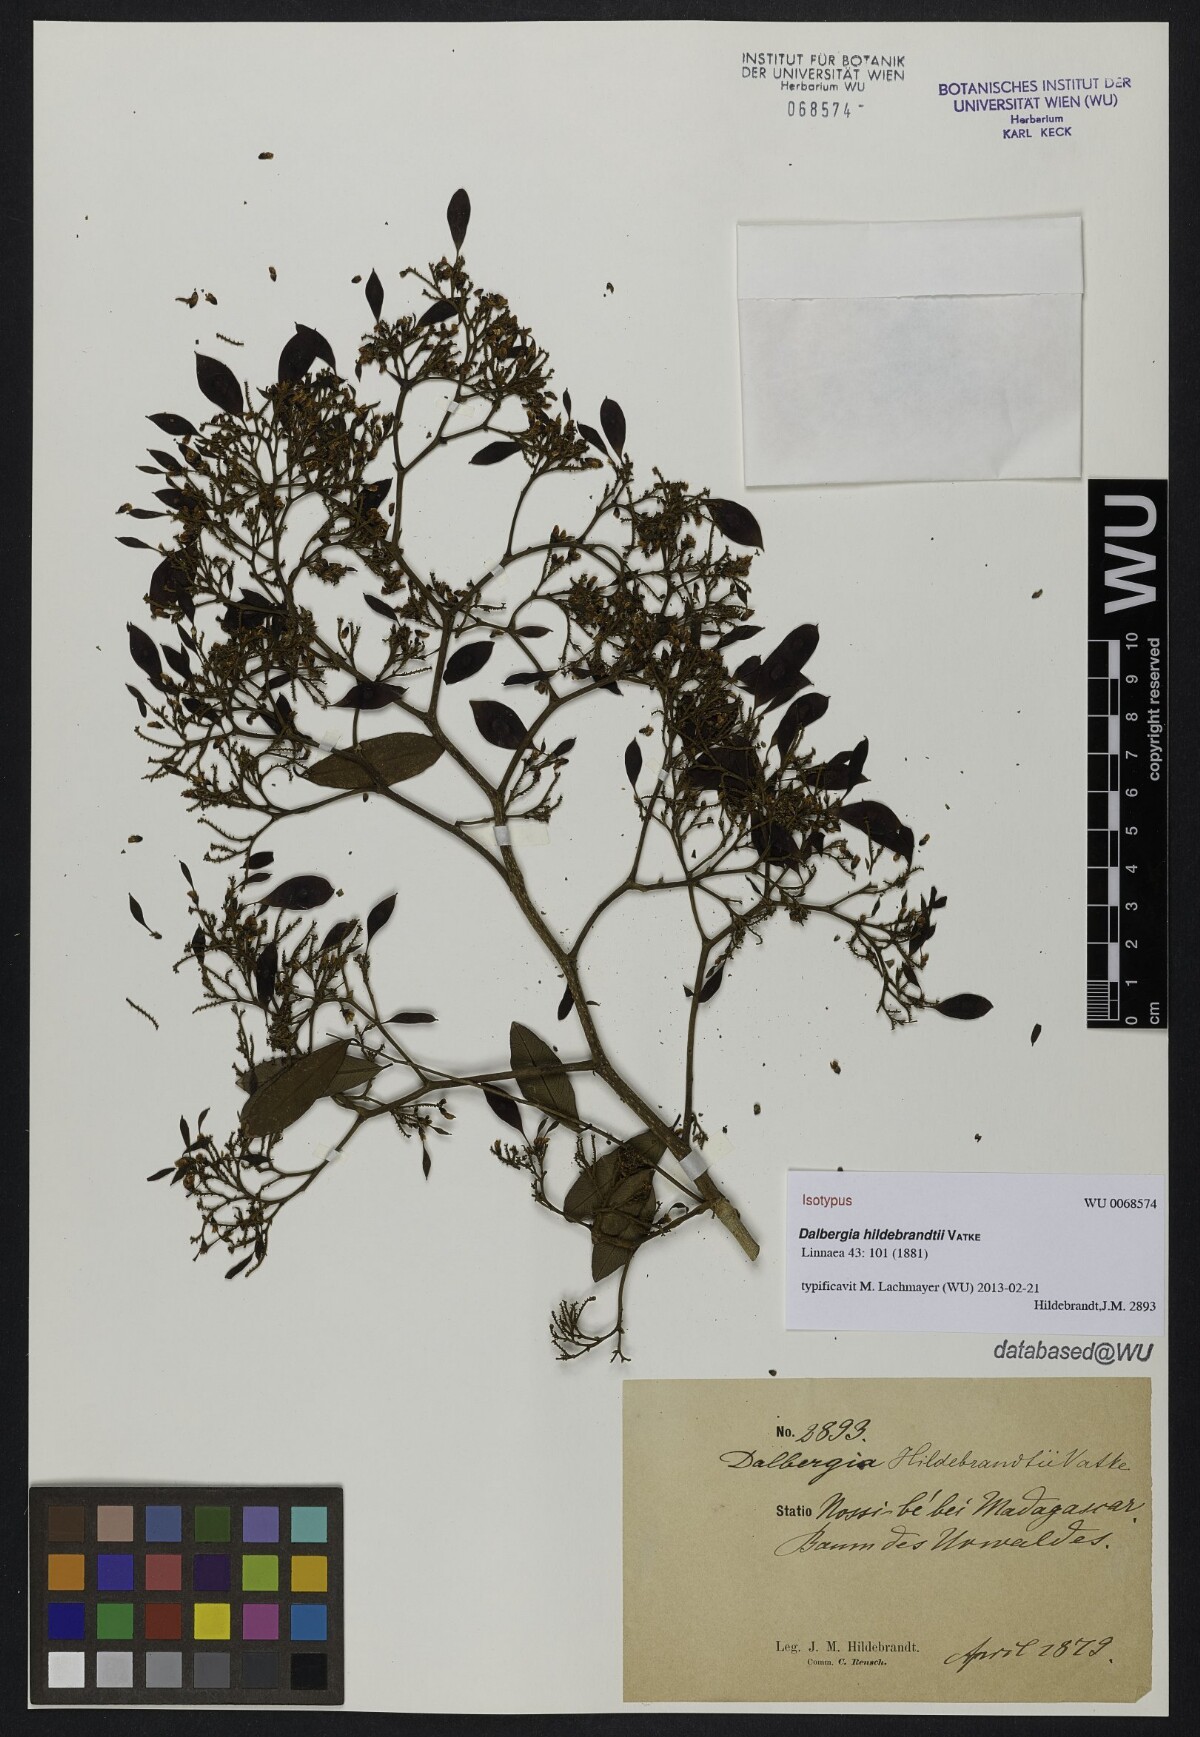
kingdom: Plantae
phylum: Tracheophyta
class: Magnoliopsida
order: Fabales
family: Fabaceae
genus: Dalbergia
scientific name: Dalbergia hildebrandtii
